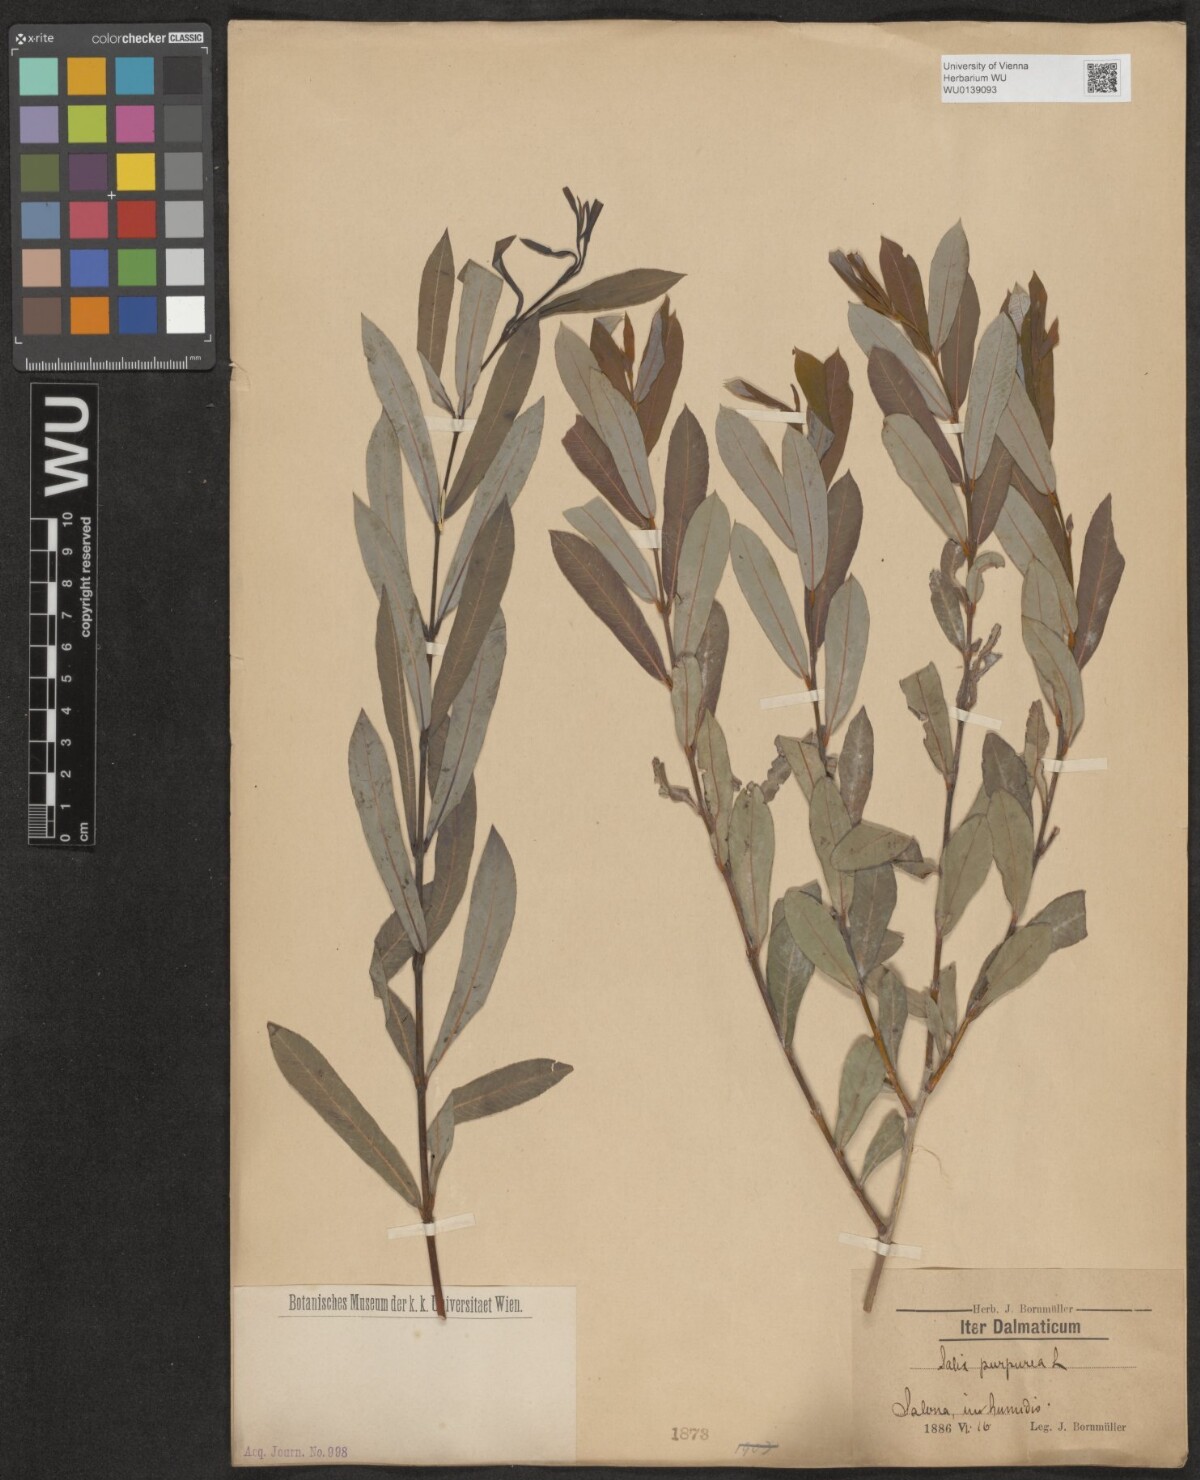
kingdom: Plantae
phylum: Tracheophyta
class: Magnoliopsida
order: Malpighiales
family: Salicaceae
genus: Salix
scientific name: Salix purpurea
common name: Purple willow
